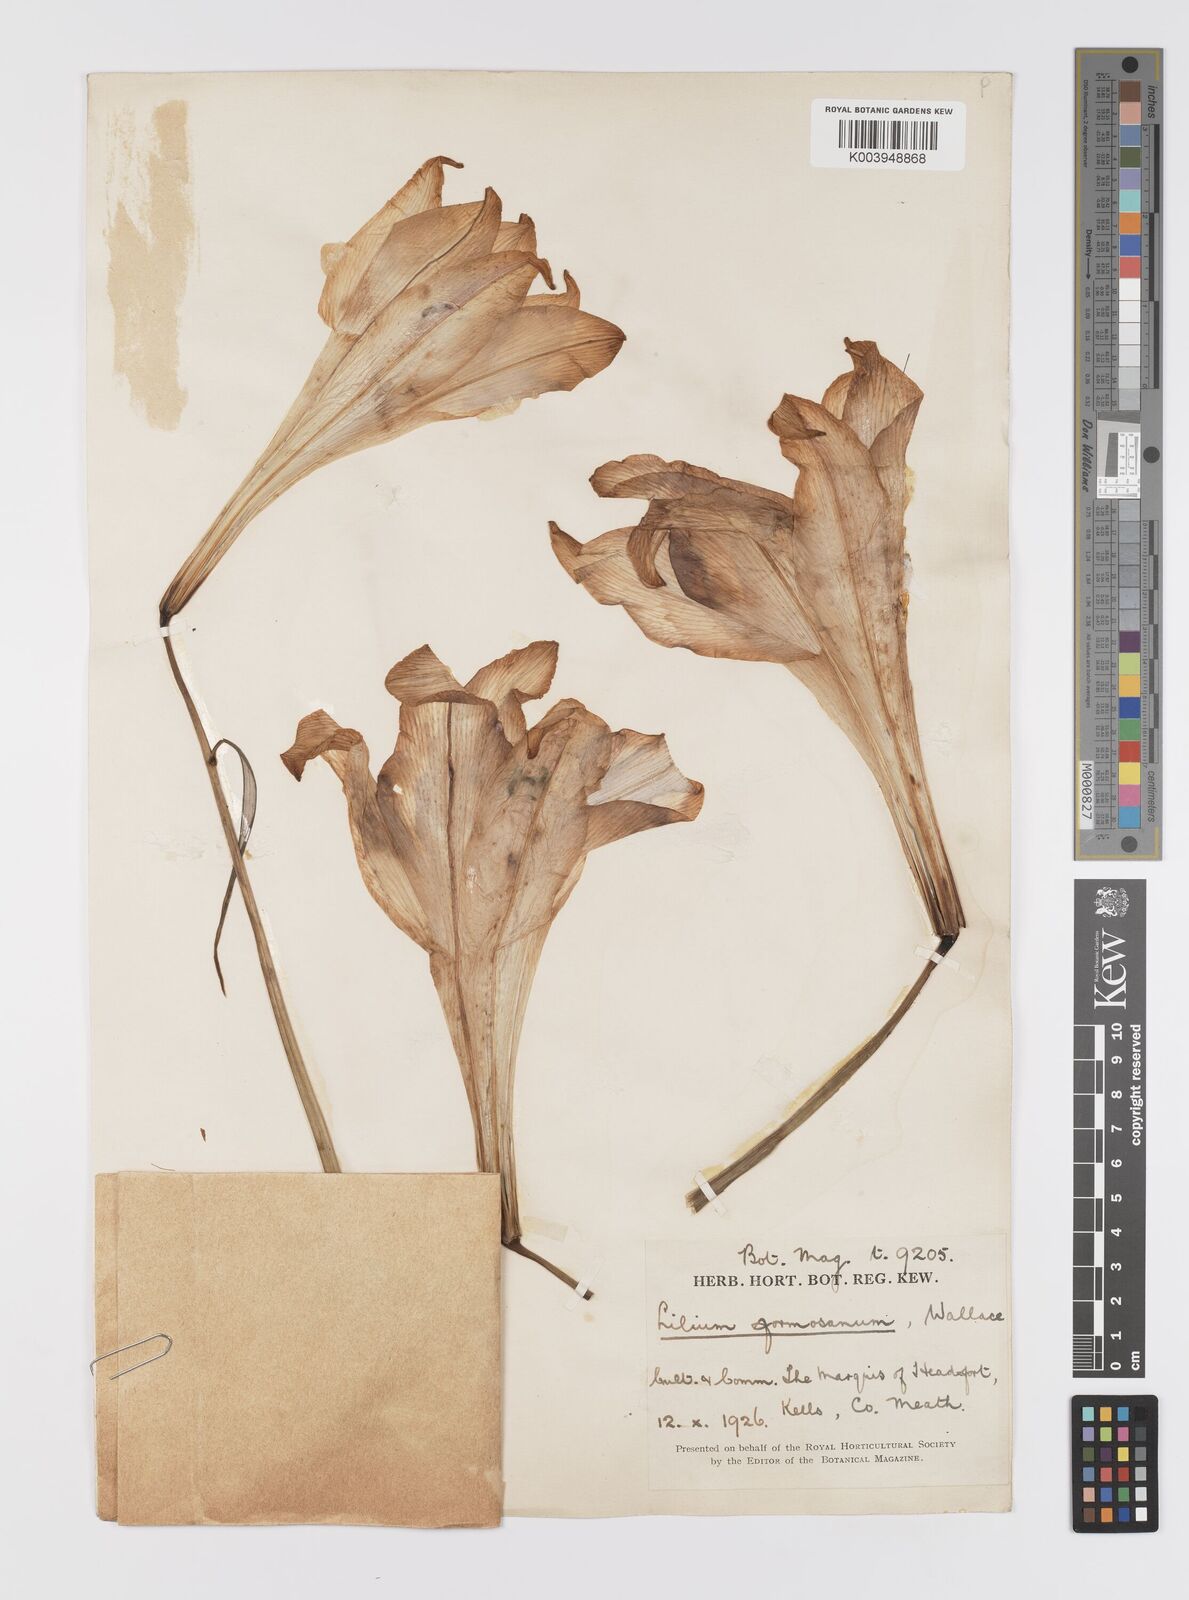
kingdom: Plantae
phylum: Tracheophyta
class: Liliopsida
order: Liliales
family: Liliaceae
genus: Lilium
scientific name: Lilium formosanum
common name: Formosa lily
